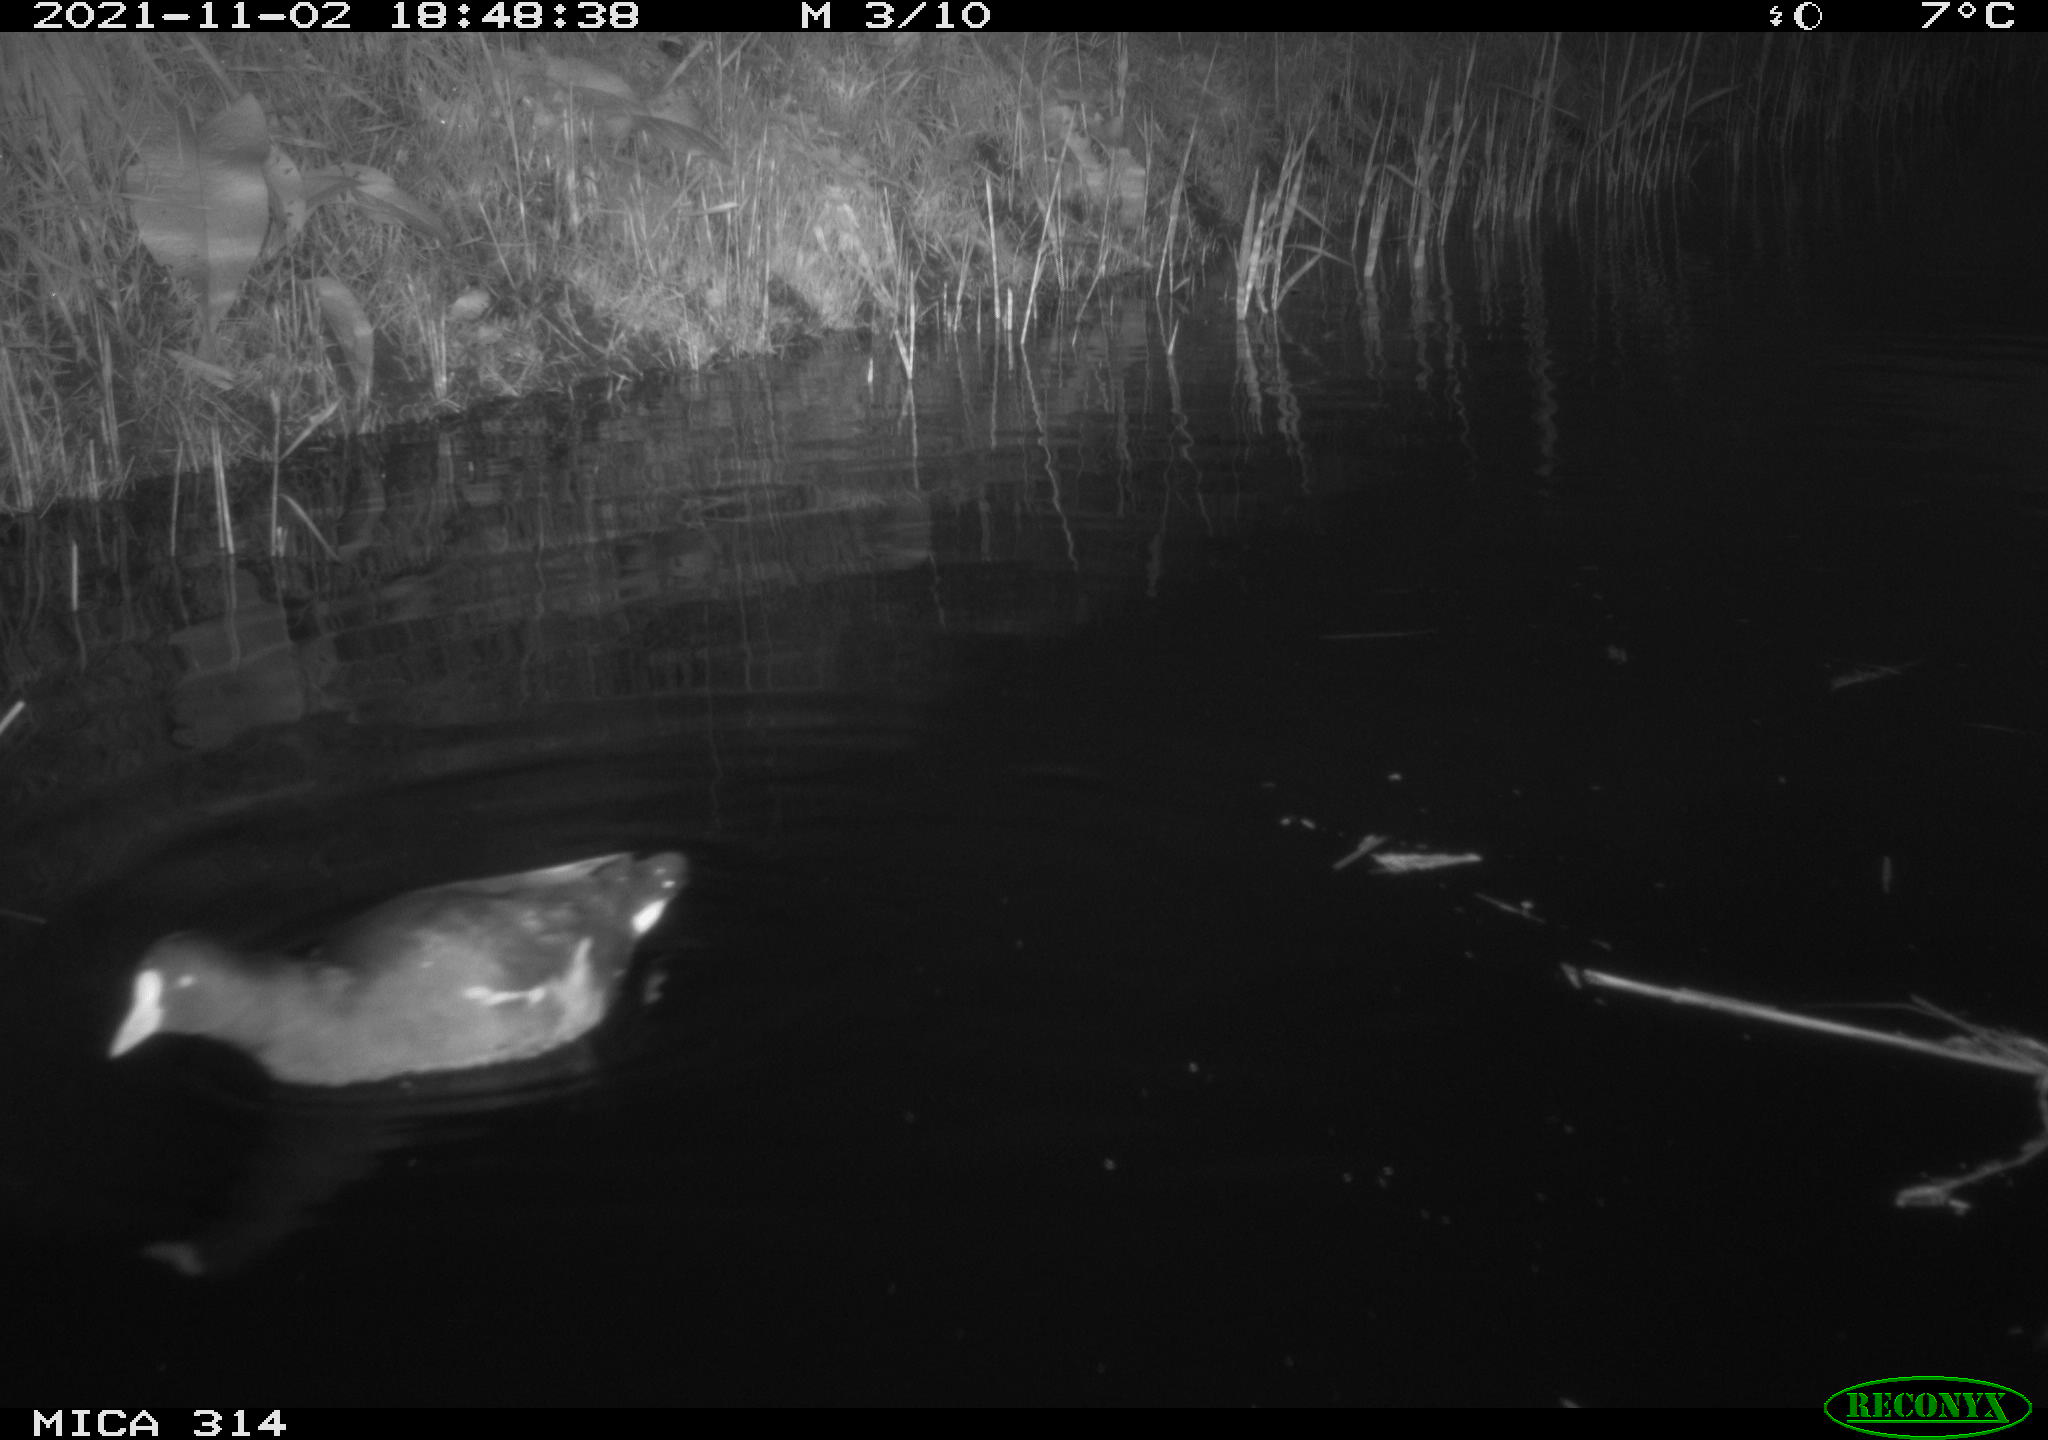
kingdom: Animalia
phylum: Chordata
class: Aves
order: Anseriformes
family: Anatidae
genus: Anas
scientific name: Anas
